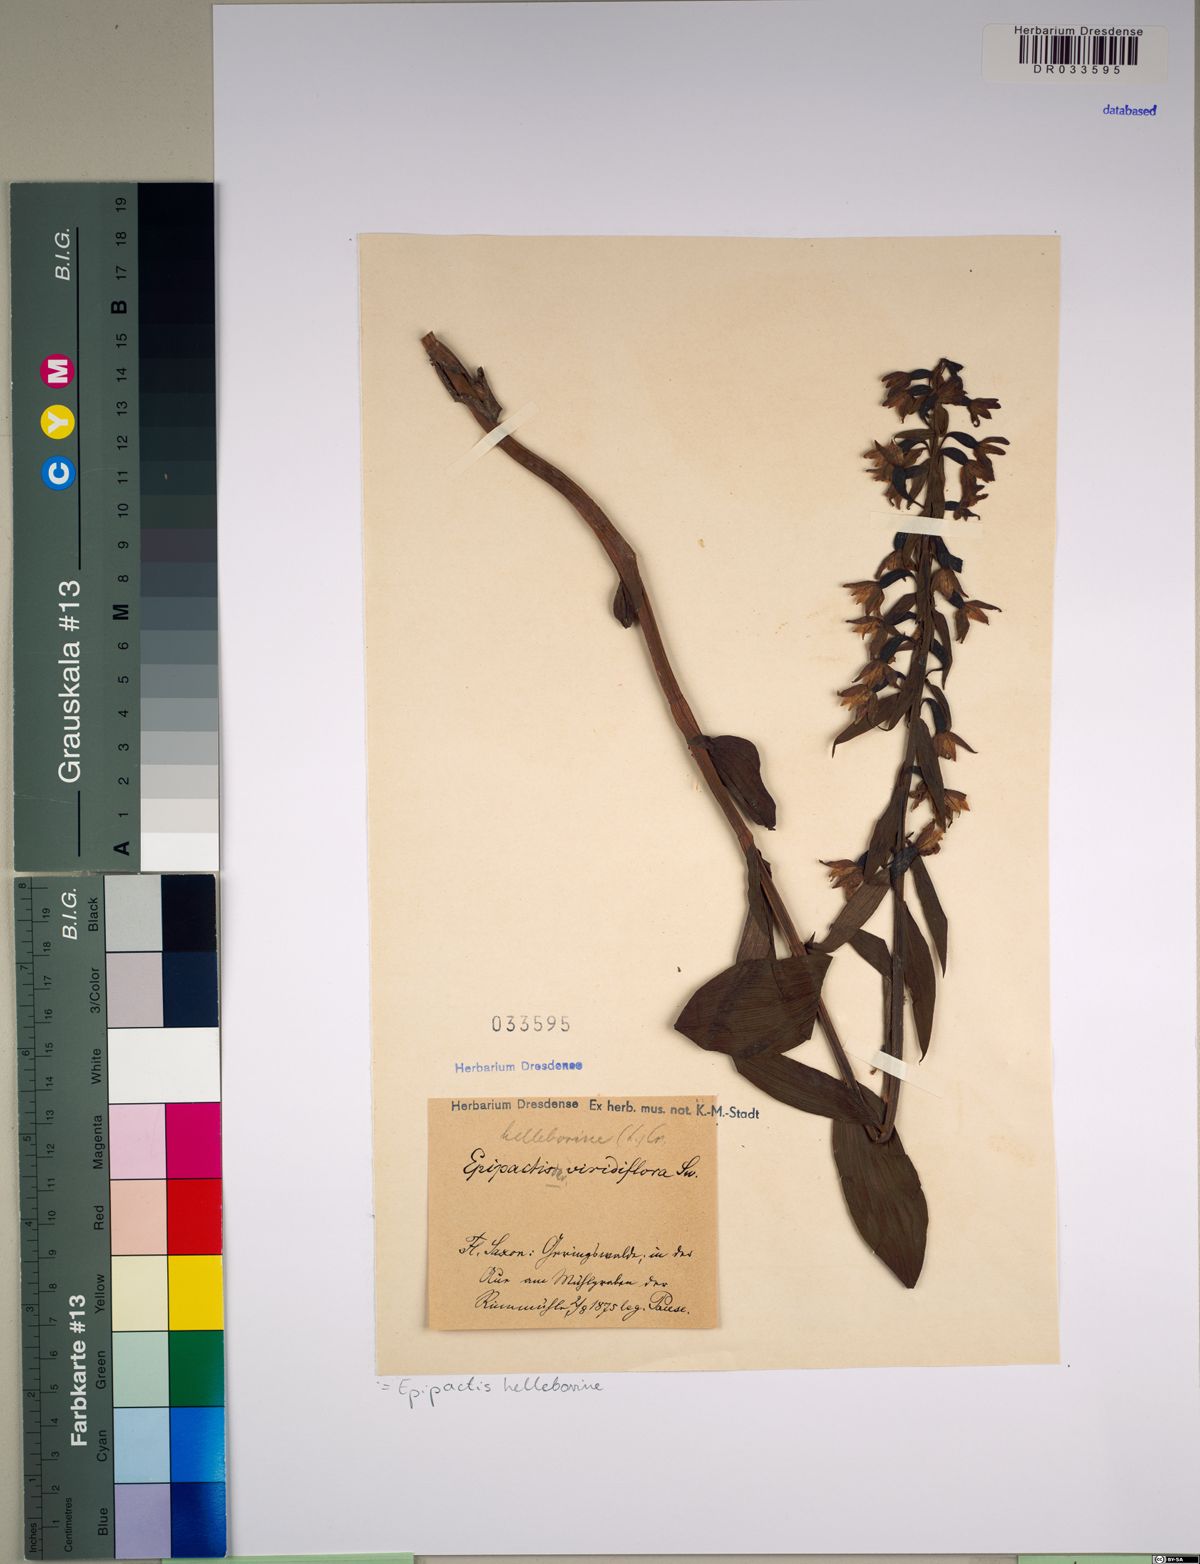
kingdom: Plantae
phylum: Tracheophyta
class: Liliopsida
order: Asparagales
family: Orchidaceae
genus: Epipactis
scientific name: Epipactis helleborine
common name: Broad-leaved helleborine
